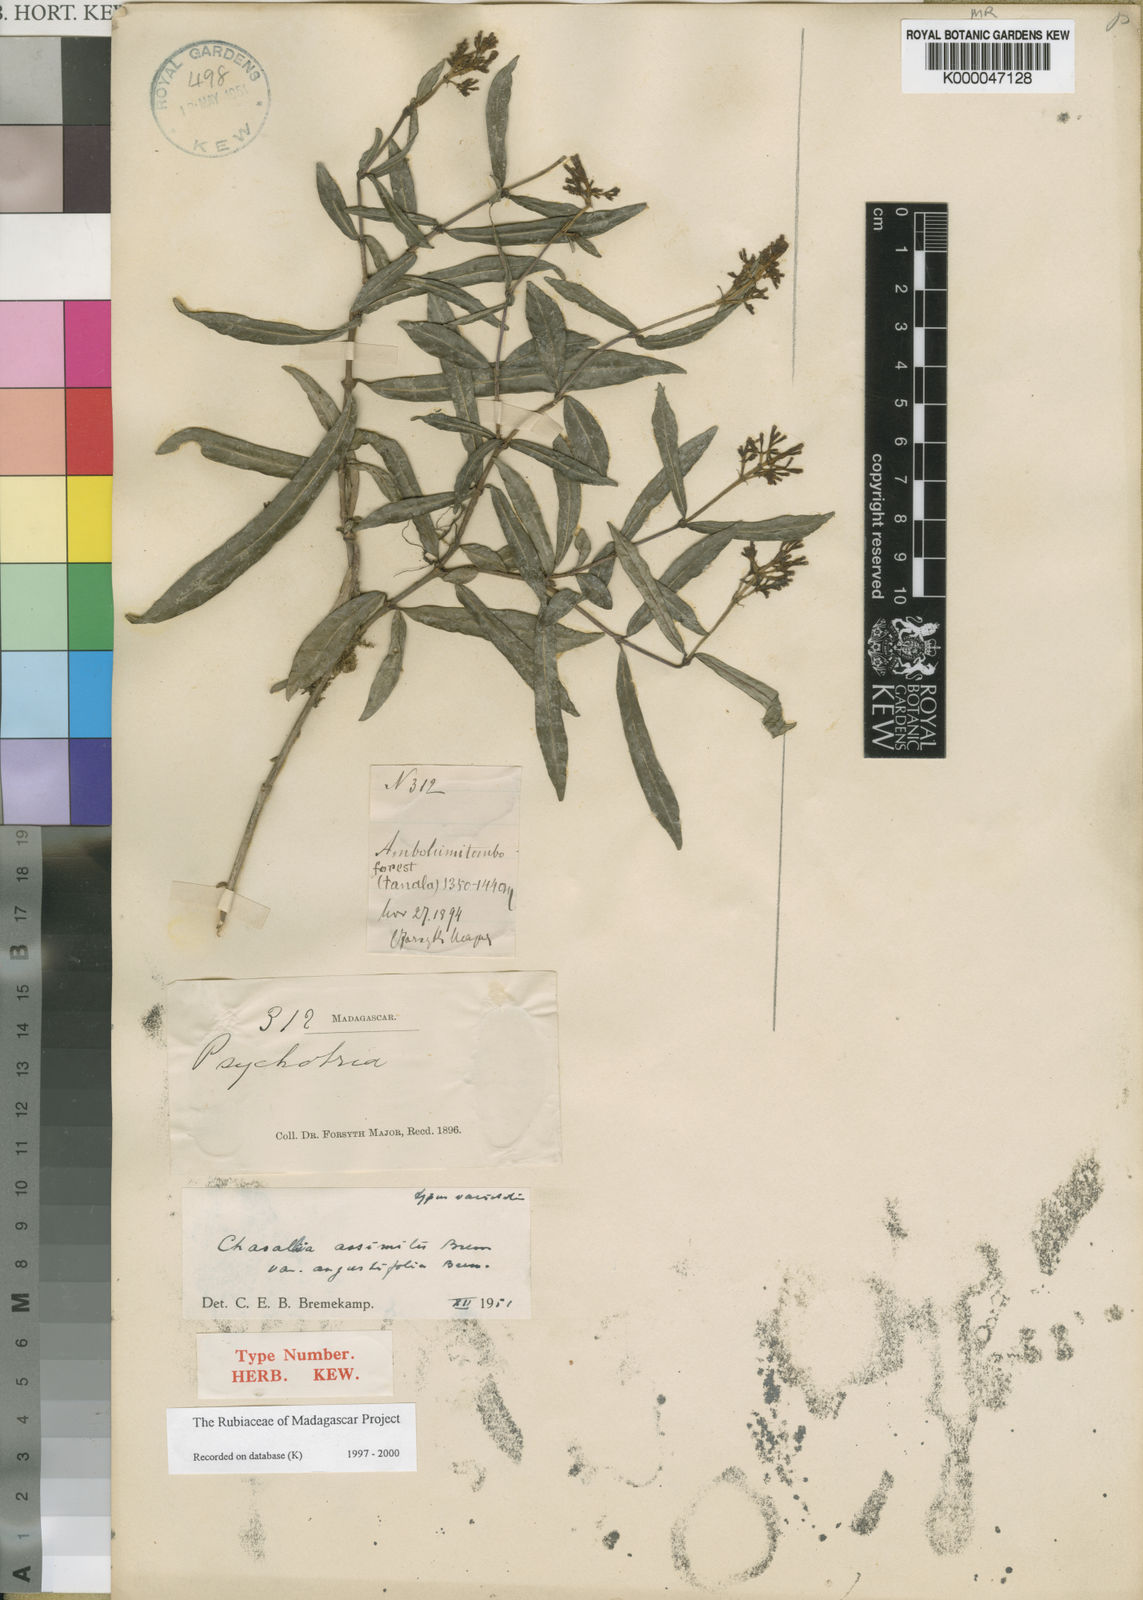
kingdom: Plantae
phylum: Tracheophyta
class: Magnoliopsida
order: Gentianales
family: Rubiaceae
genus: Chassalia
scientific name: Chassalia assimilis
